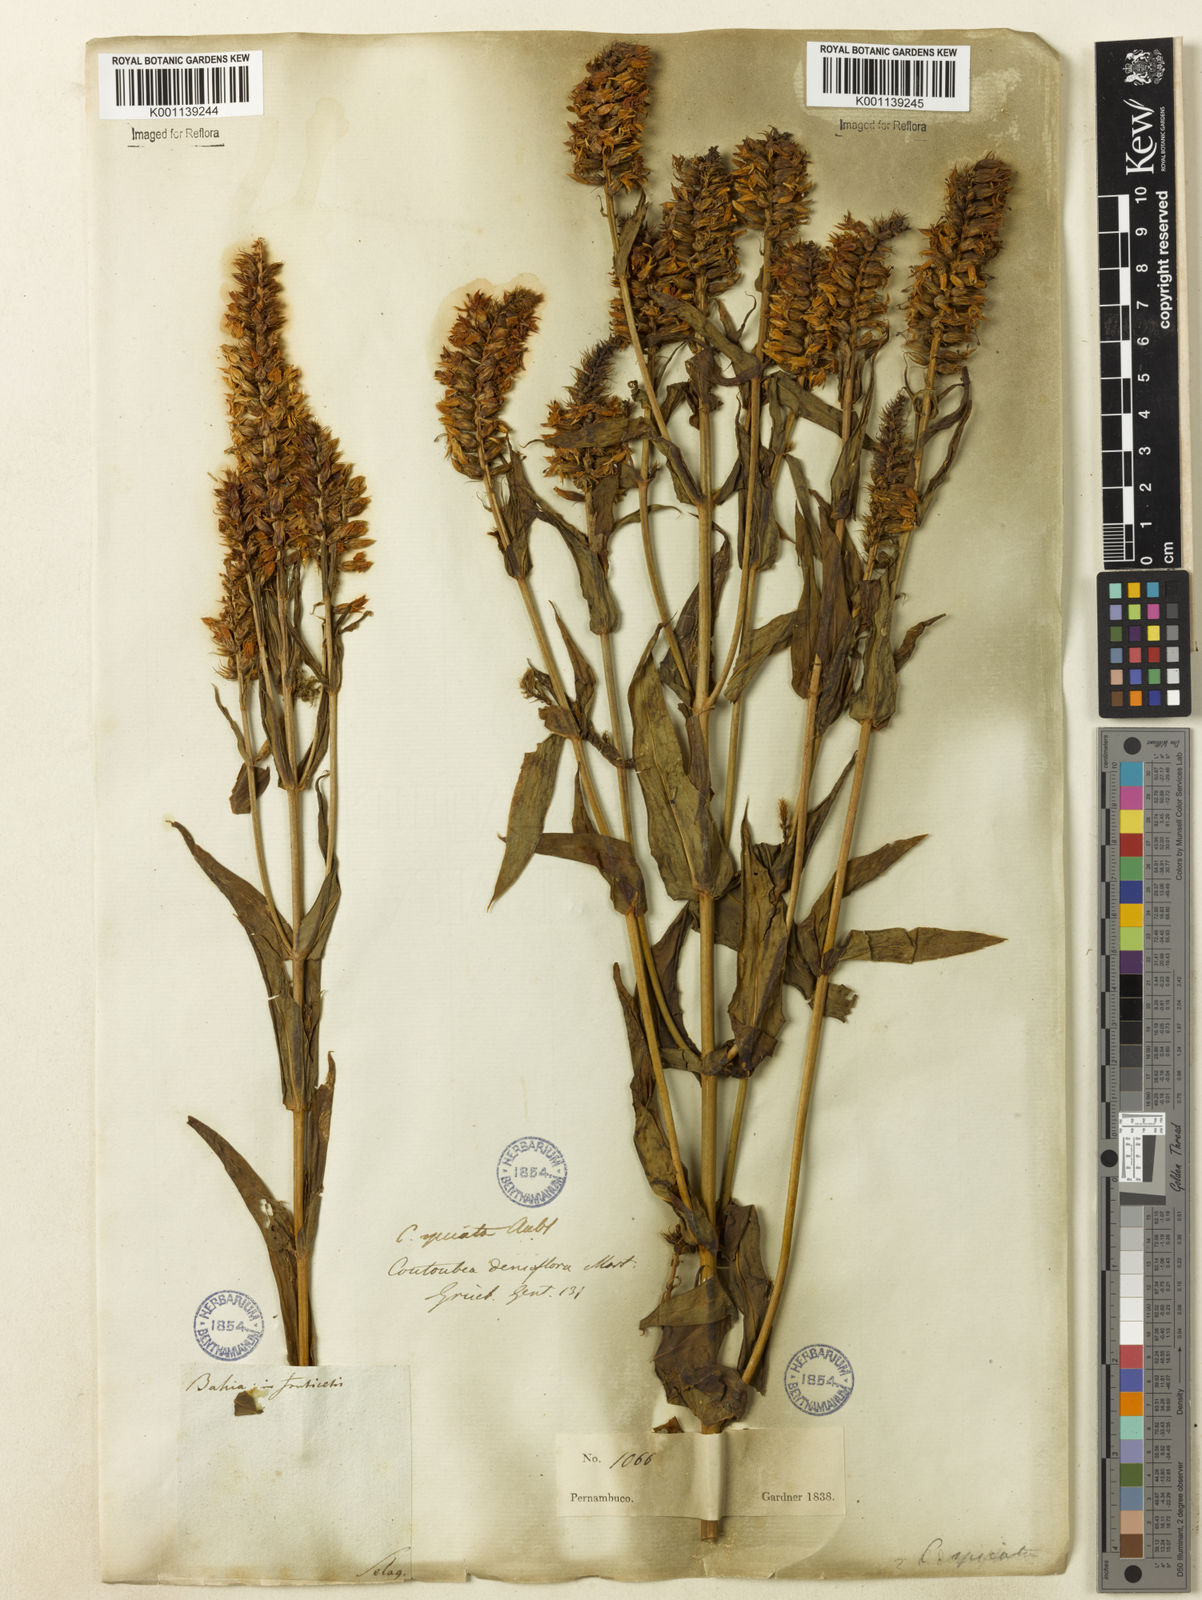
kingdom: Plantae
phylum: Tracheophyta
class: Magnoliopsida
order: Gentianales
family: Gentianaceae
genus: Coutoubea
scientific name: Coutoubea spicata
